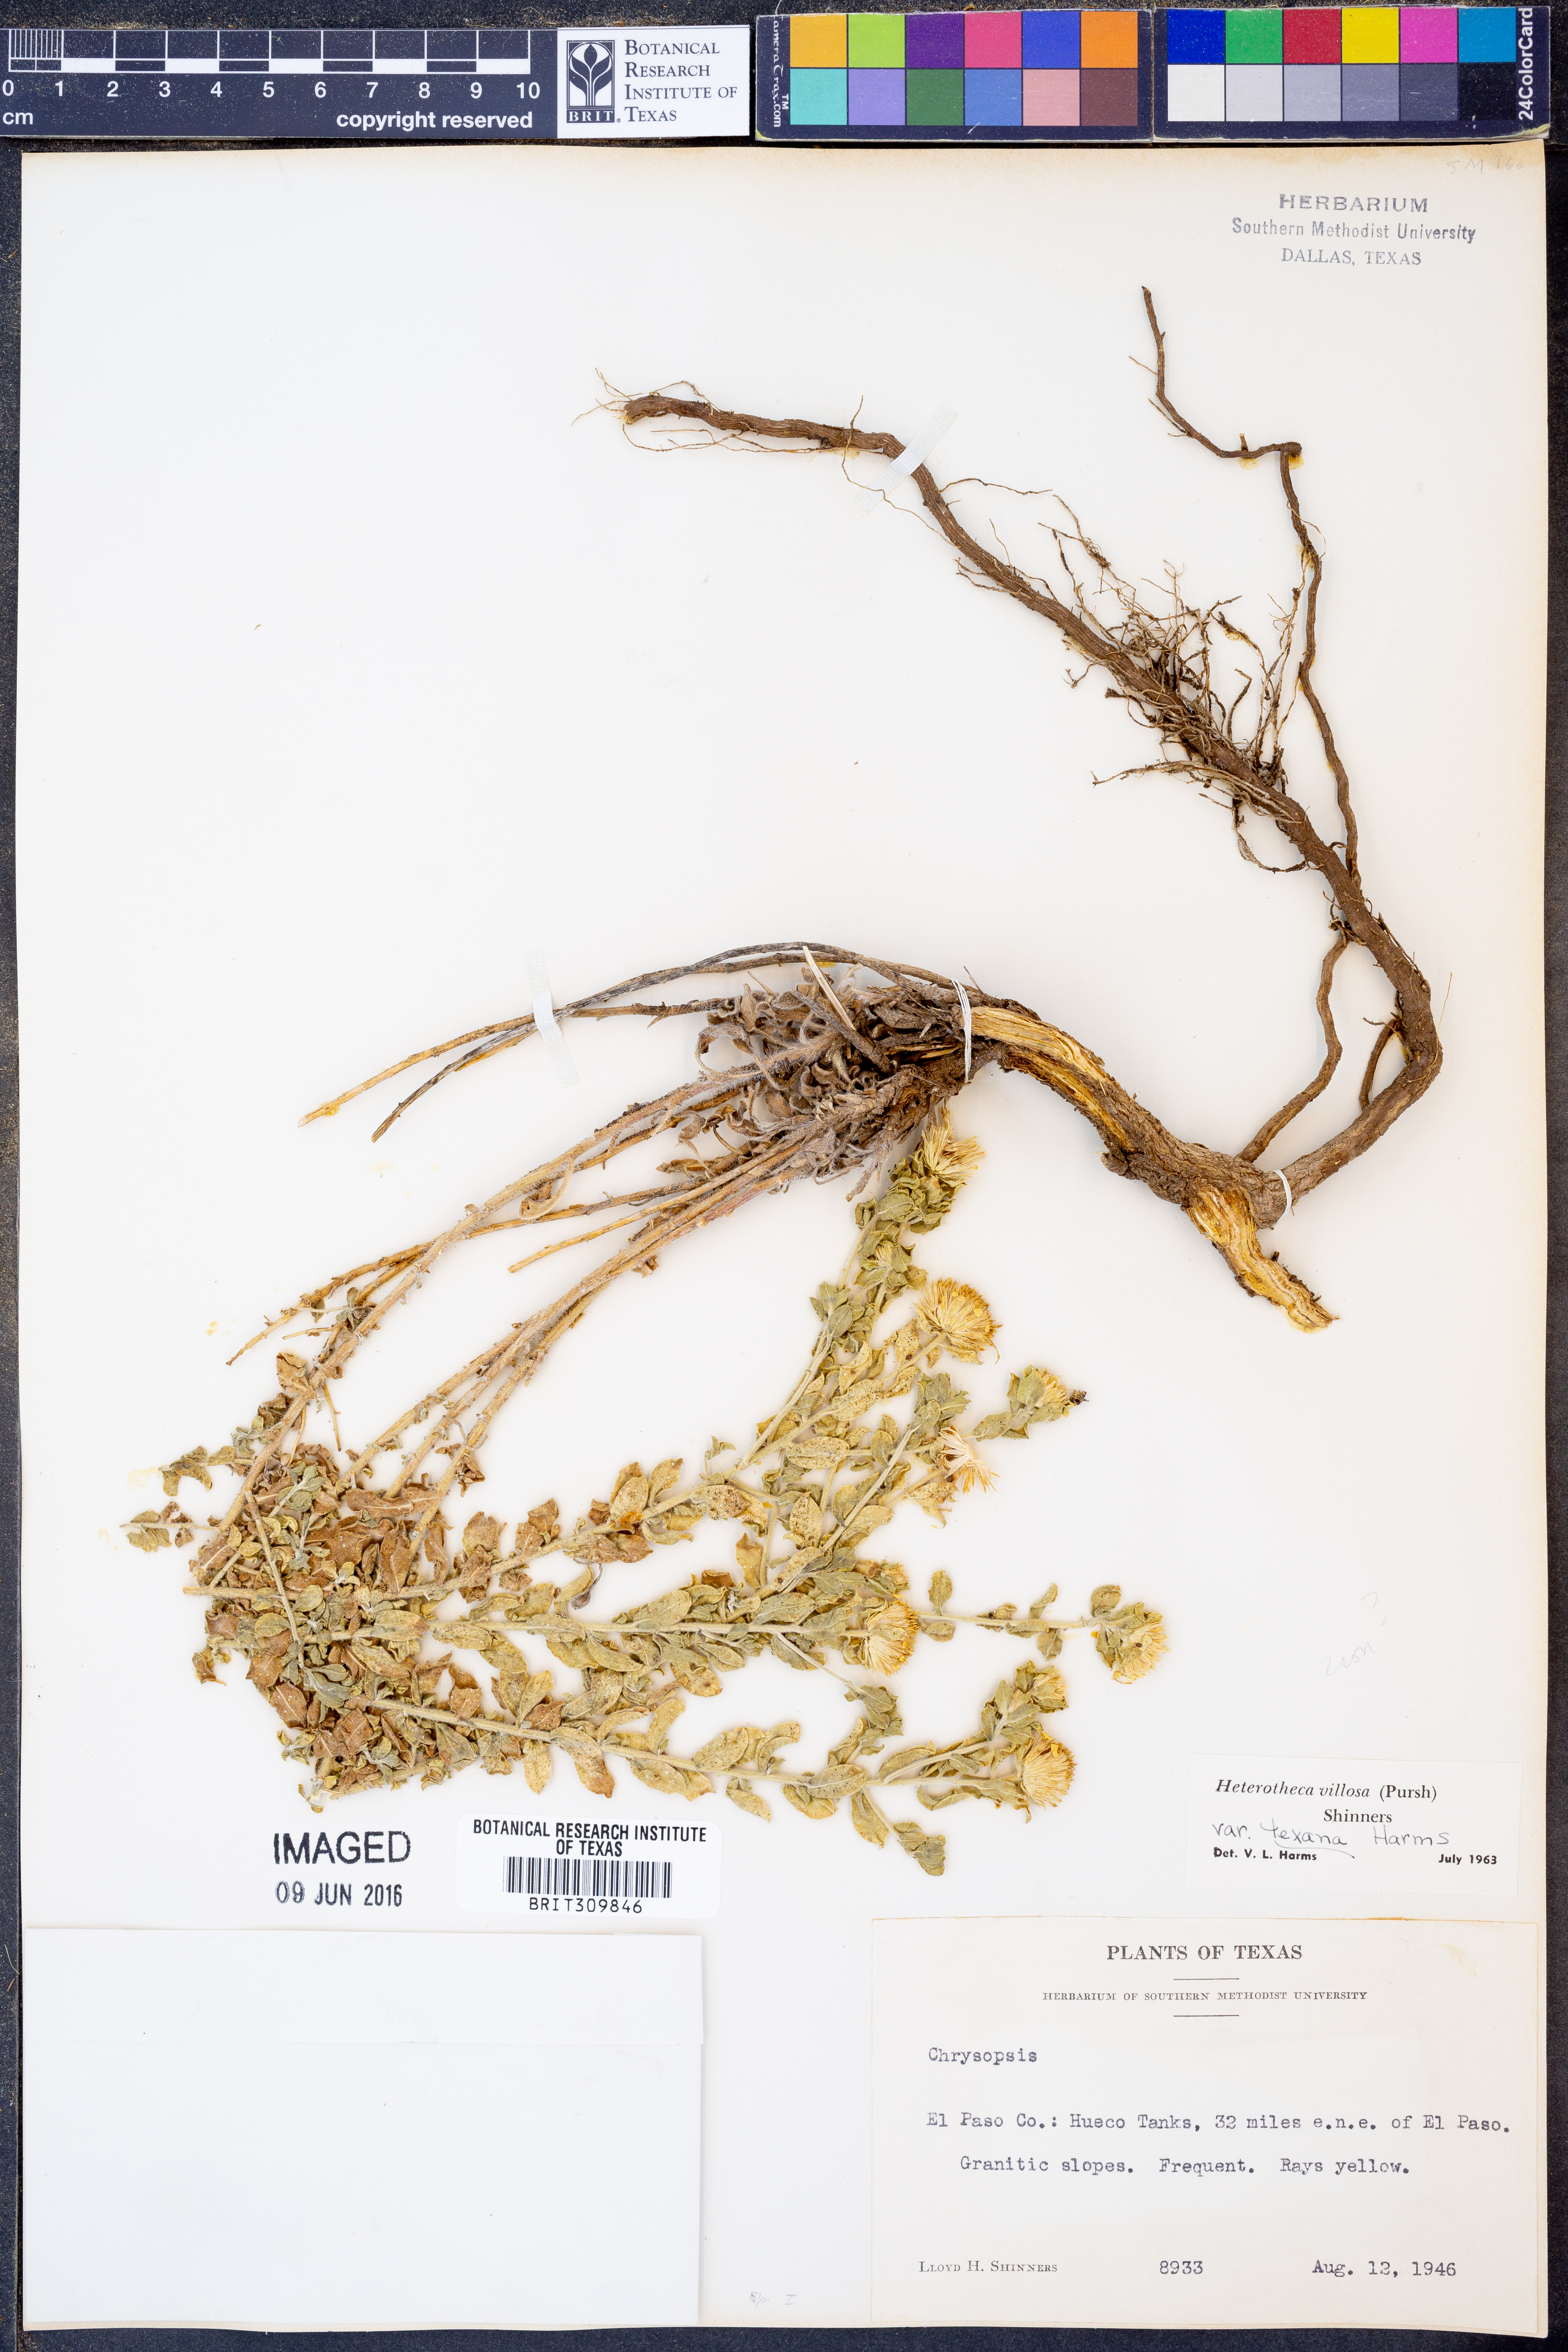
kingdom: Plantae
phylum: Tracheophyta
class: Magnoliopsida
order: Asterales
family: Asteraceae
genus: Heterotheca
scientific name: Heterotheca villosa
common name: Hairy false goldenaster
